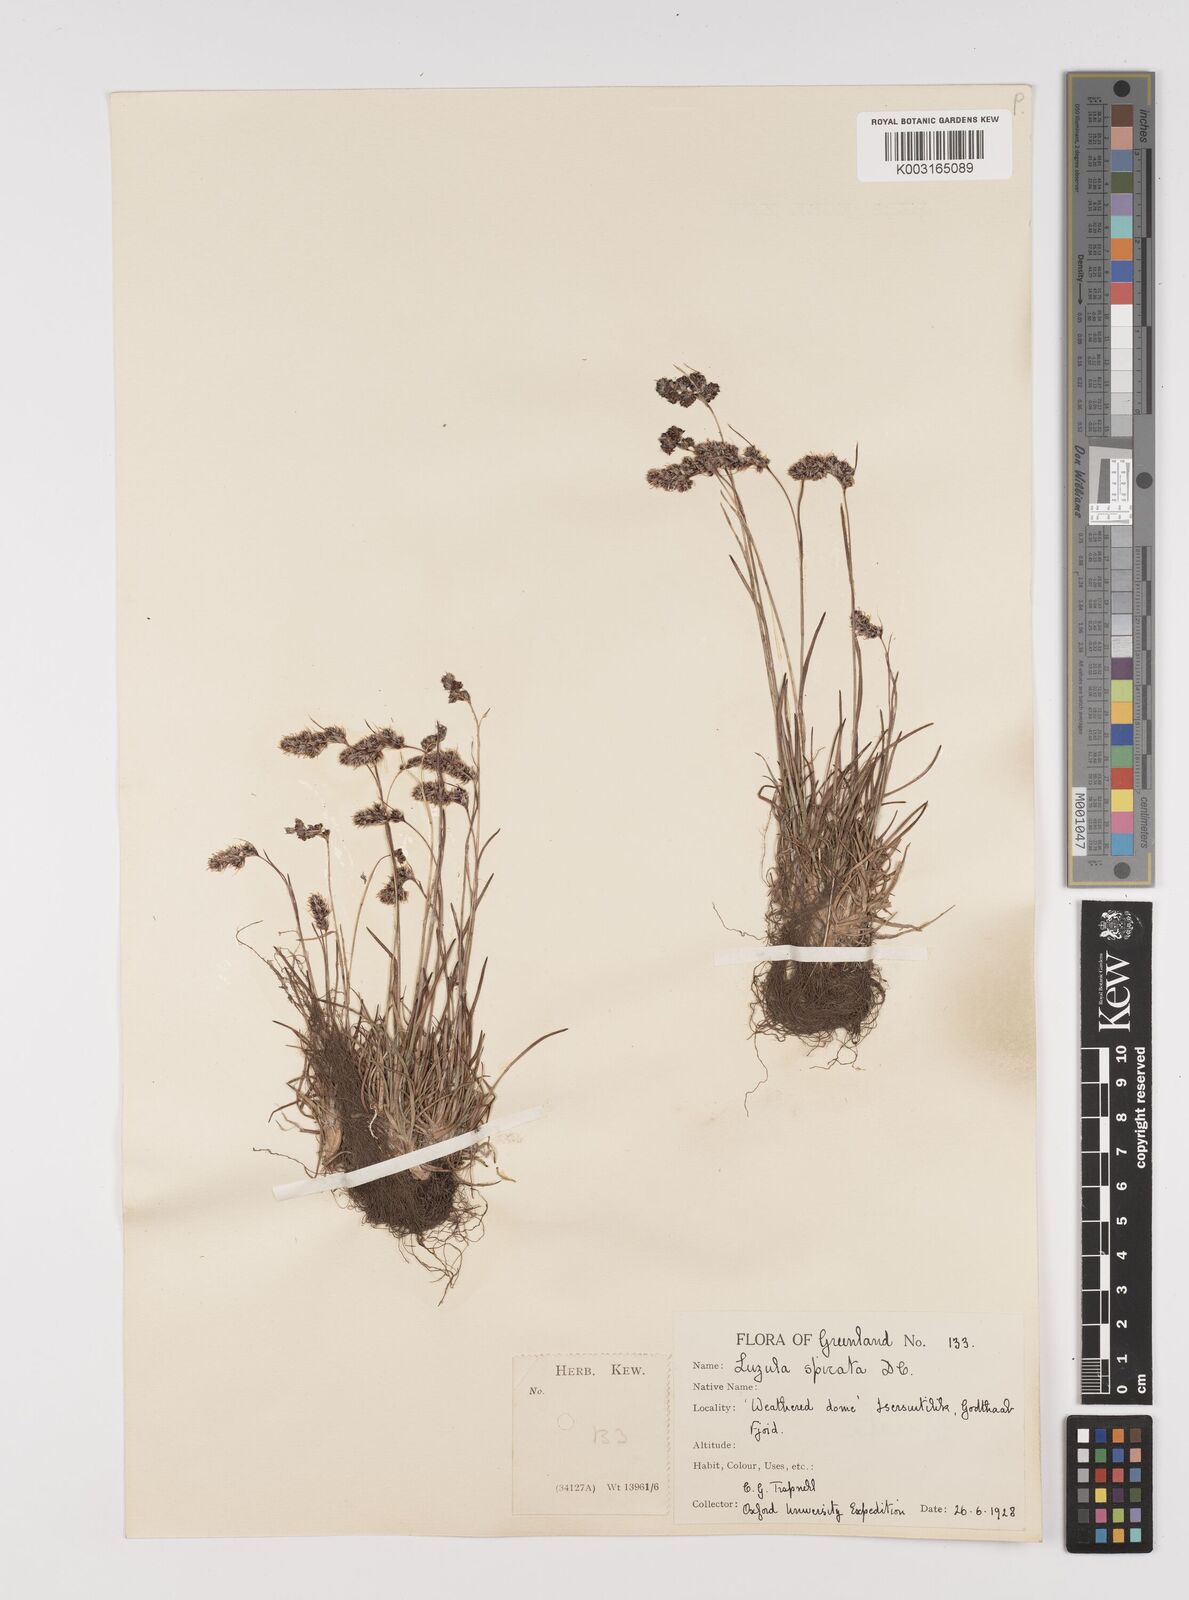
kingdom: Plantae
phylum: Tracheophyta
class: Liliopsida
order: Poales
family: Juncaceae
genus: Luzula
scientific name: Luzula spicata
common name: Spiked wood-rush
